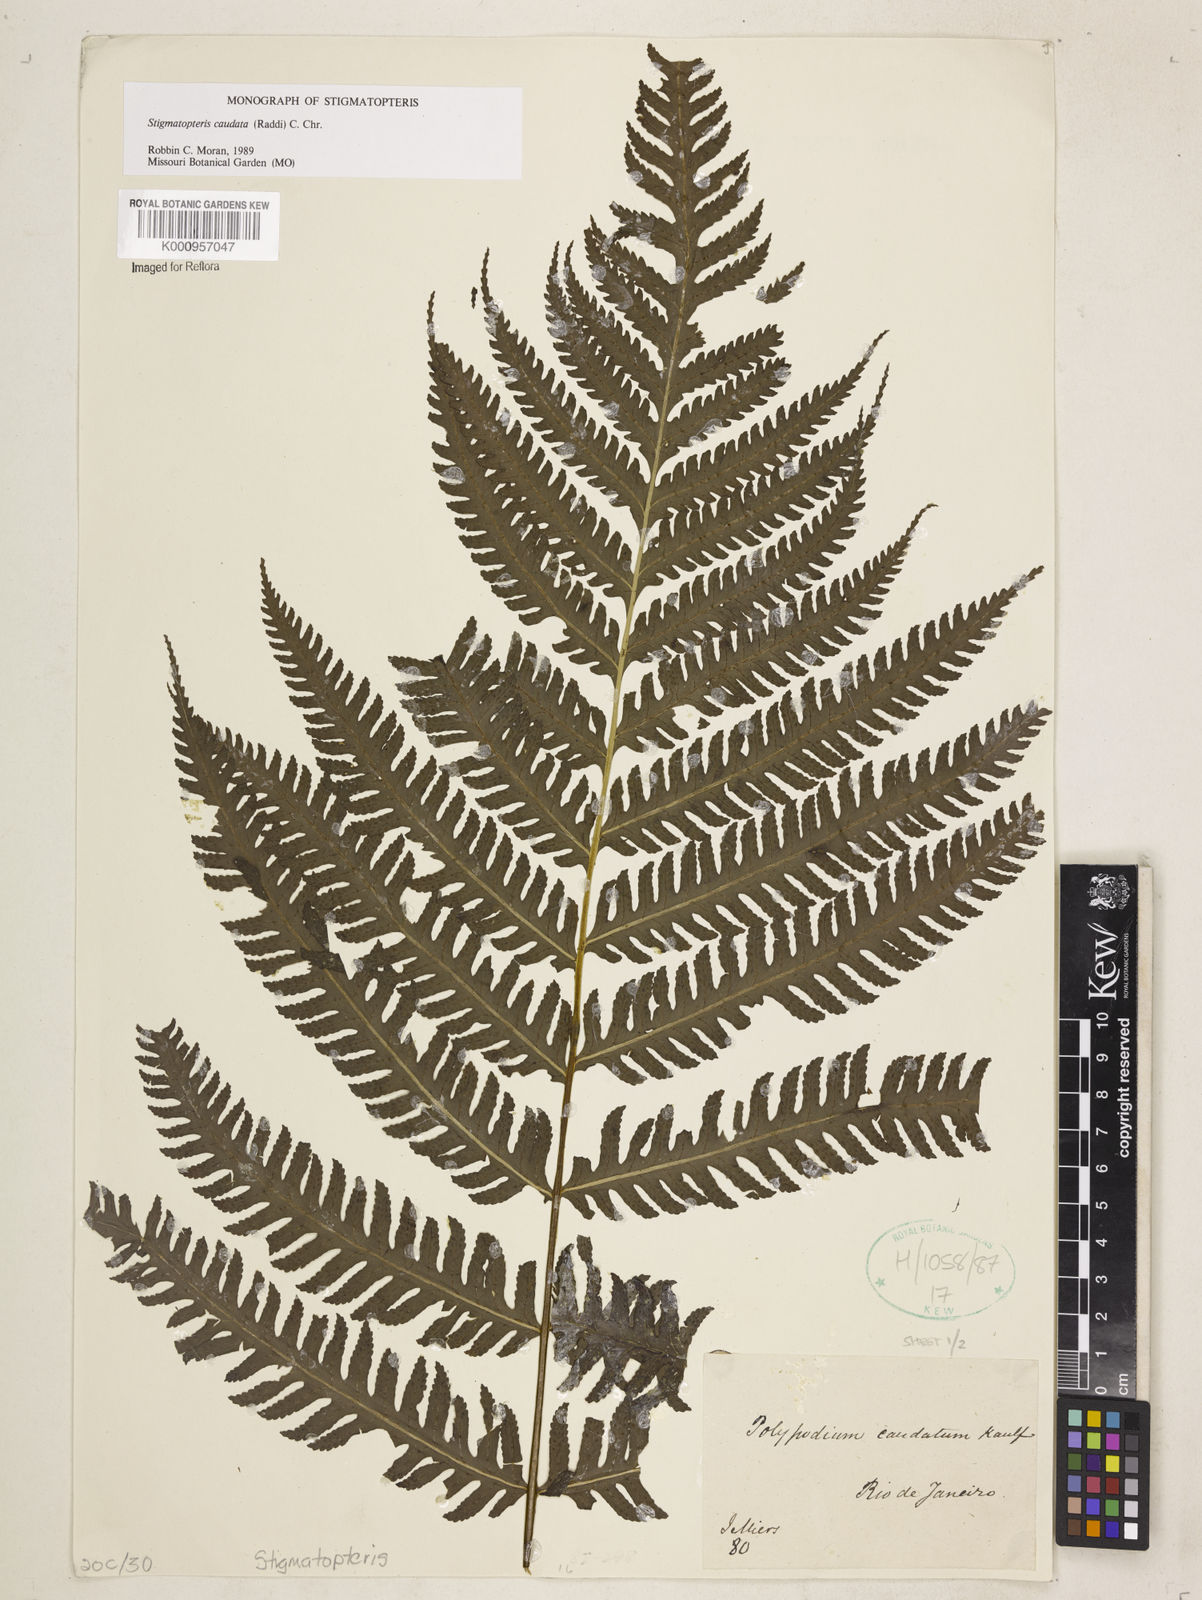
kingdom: Plantae
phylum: Tracheophyta
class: Polypodiopsida
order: Polypodiales
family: Dryopteridaceae
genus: Stigmatopteris
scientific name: Stigmatopteris caudata
